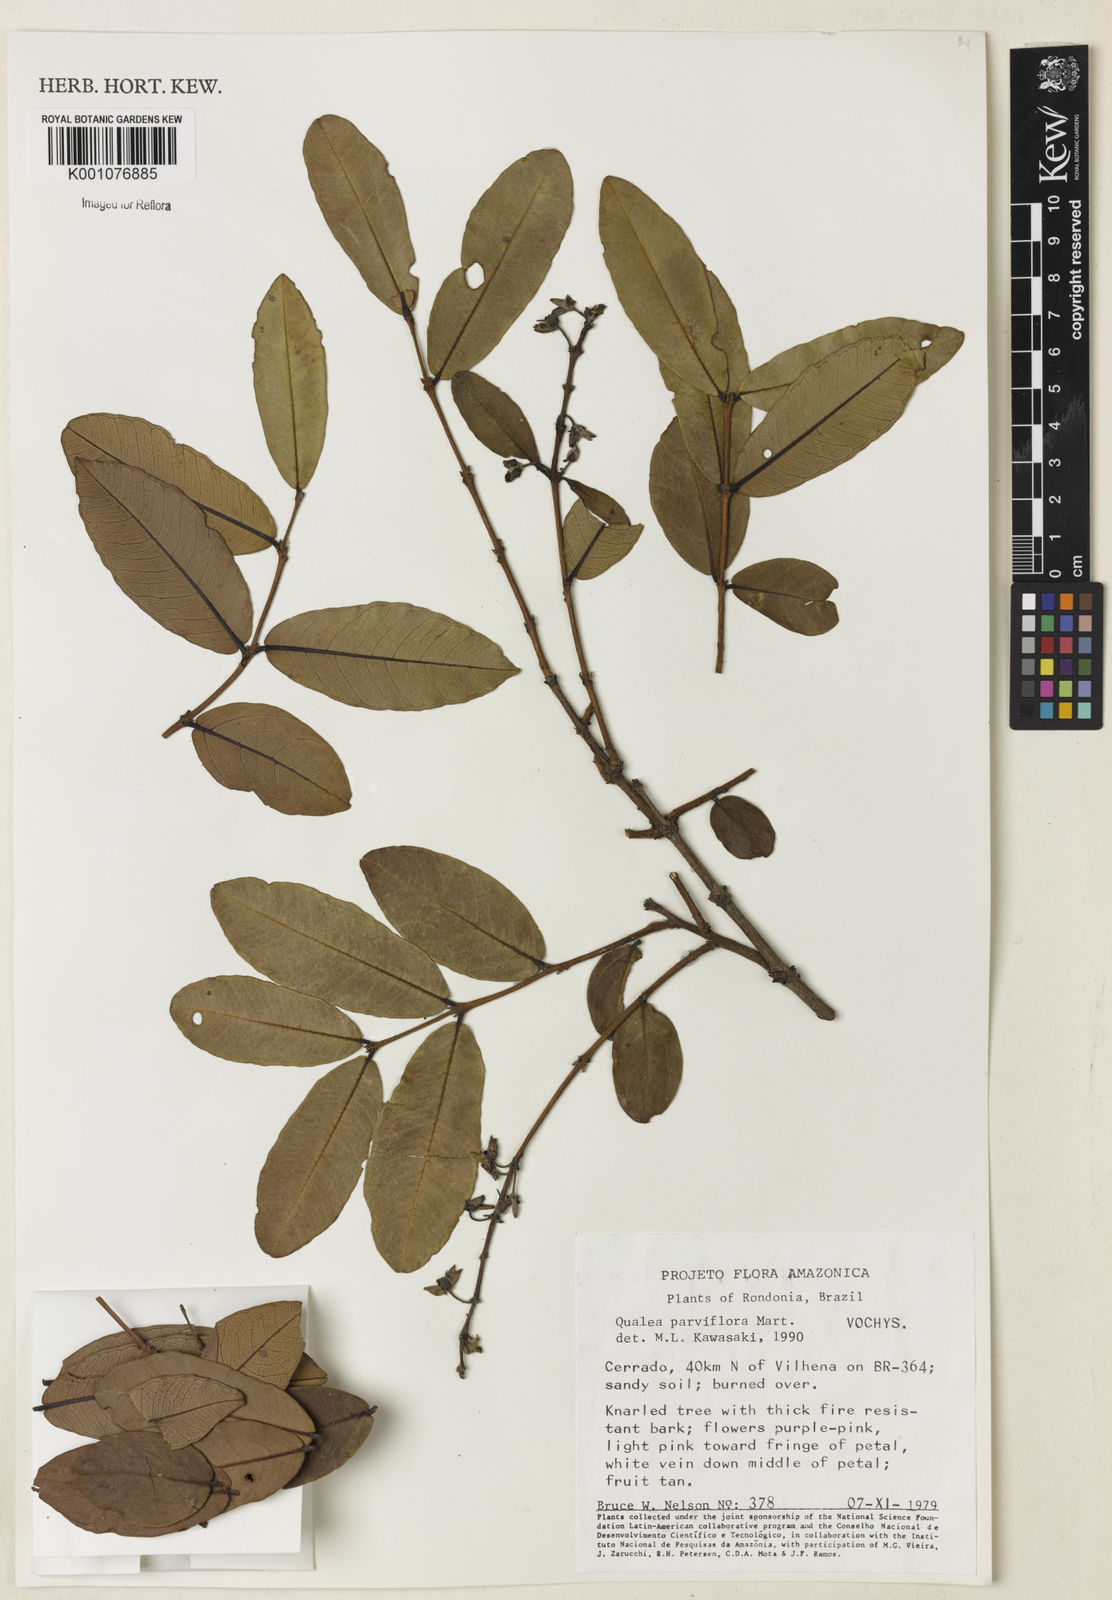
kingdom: Plantae
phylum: Tracheophyta
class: Magnoliopsida
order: Myrtales
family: Vochysiaceae
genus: Qualea
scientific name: Qualea parviflora
